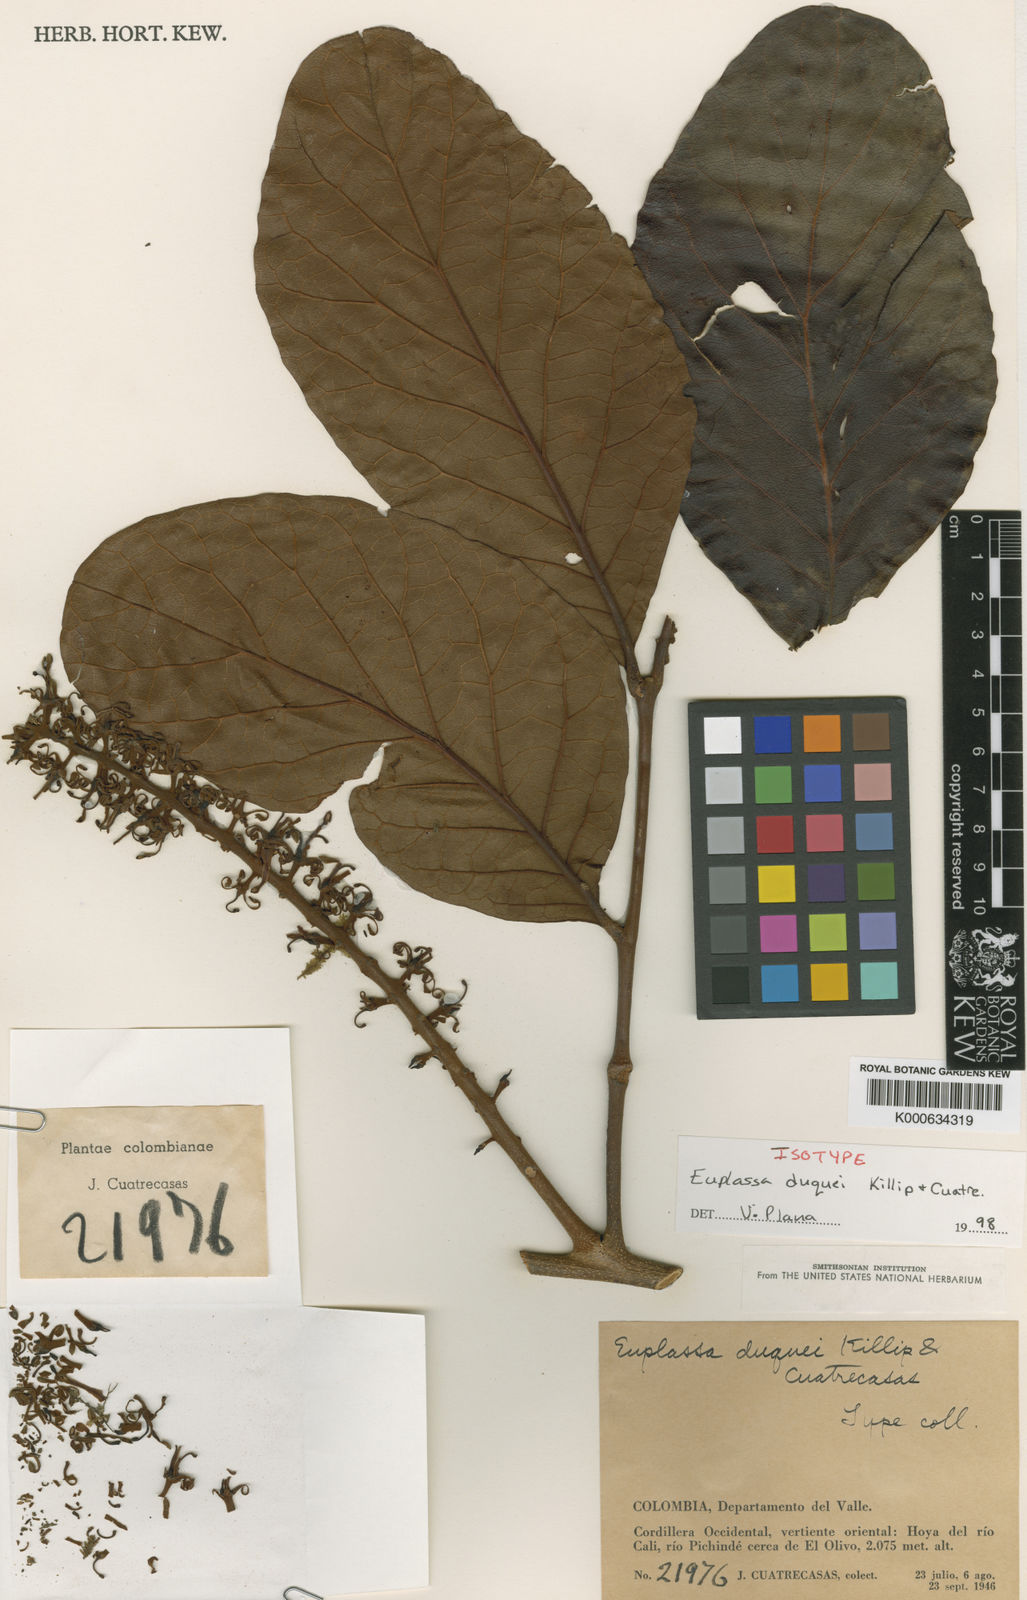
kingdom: Plantae
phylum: Tracheophyta
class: Magnoliopsida
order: Proteales
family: Proteaceae
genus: Euplassa
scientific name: Euplassa duquei
